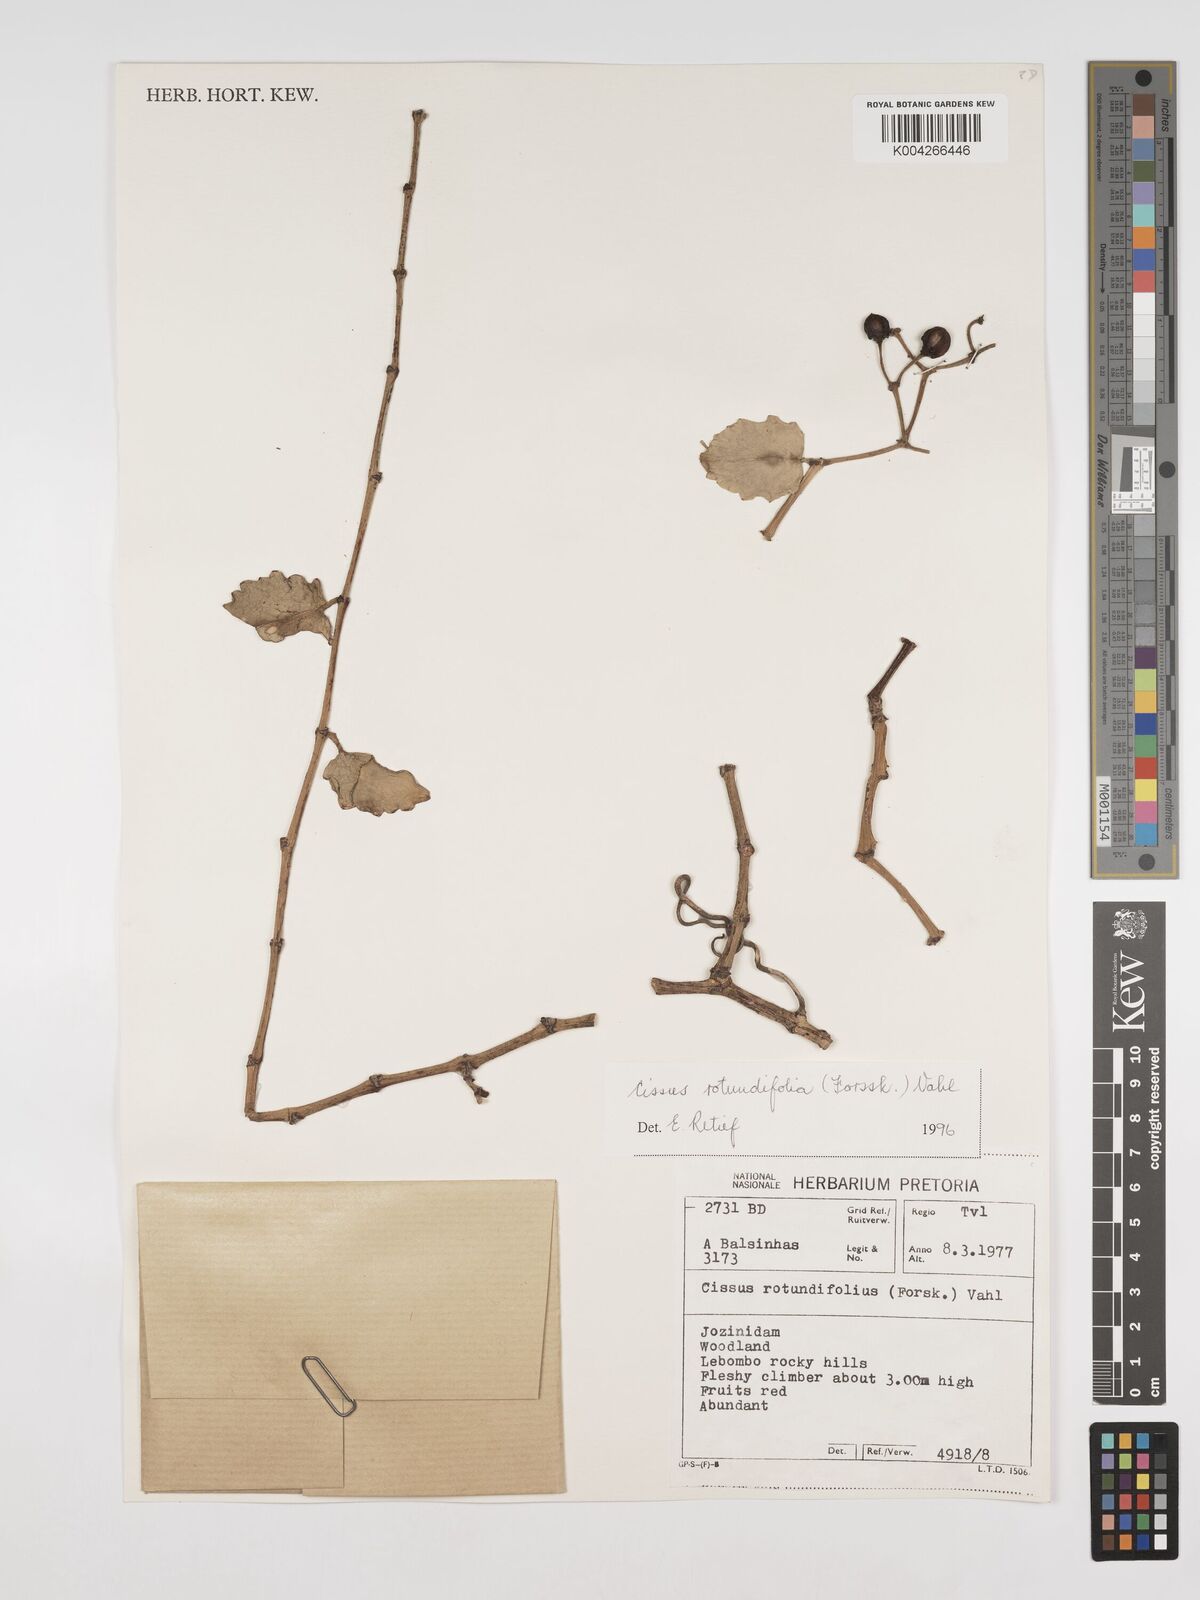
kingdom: Plantae
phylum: Tracheophyta
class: Magnoliopsida
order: Vitales
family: Vitaceae
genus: Cissus
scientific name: Cissus
